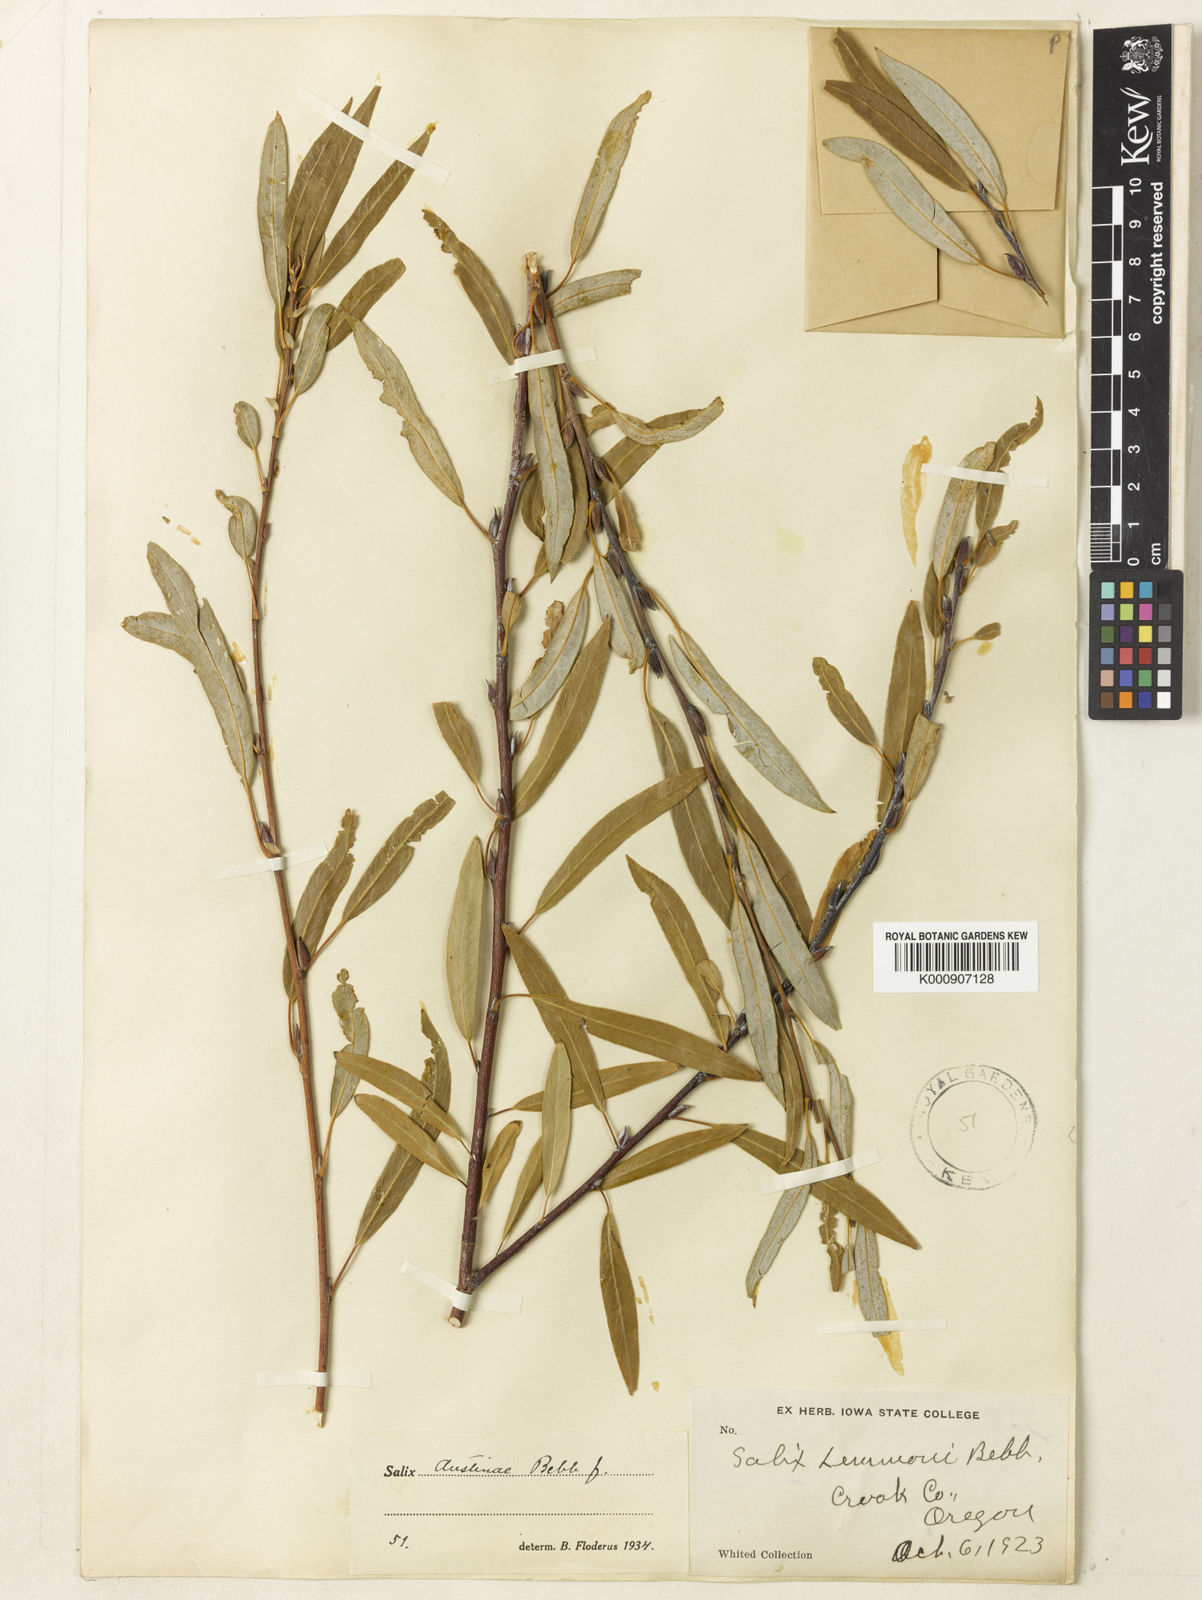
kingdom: Plantae
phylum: Tracheophyta
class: Magnoliopsida
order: Malpighiales
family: Salicaceae
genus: Salix
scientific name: Salix lemmonii
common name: Lemmon's willow
